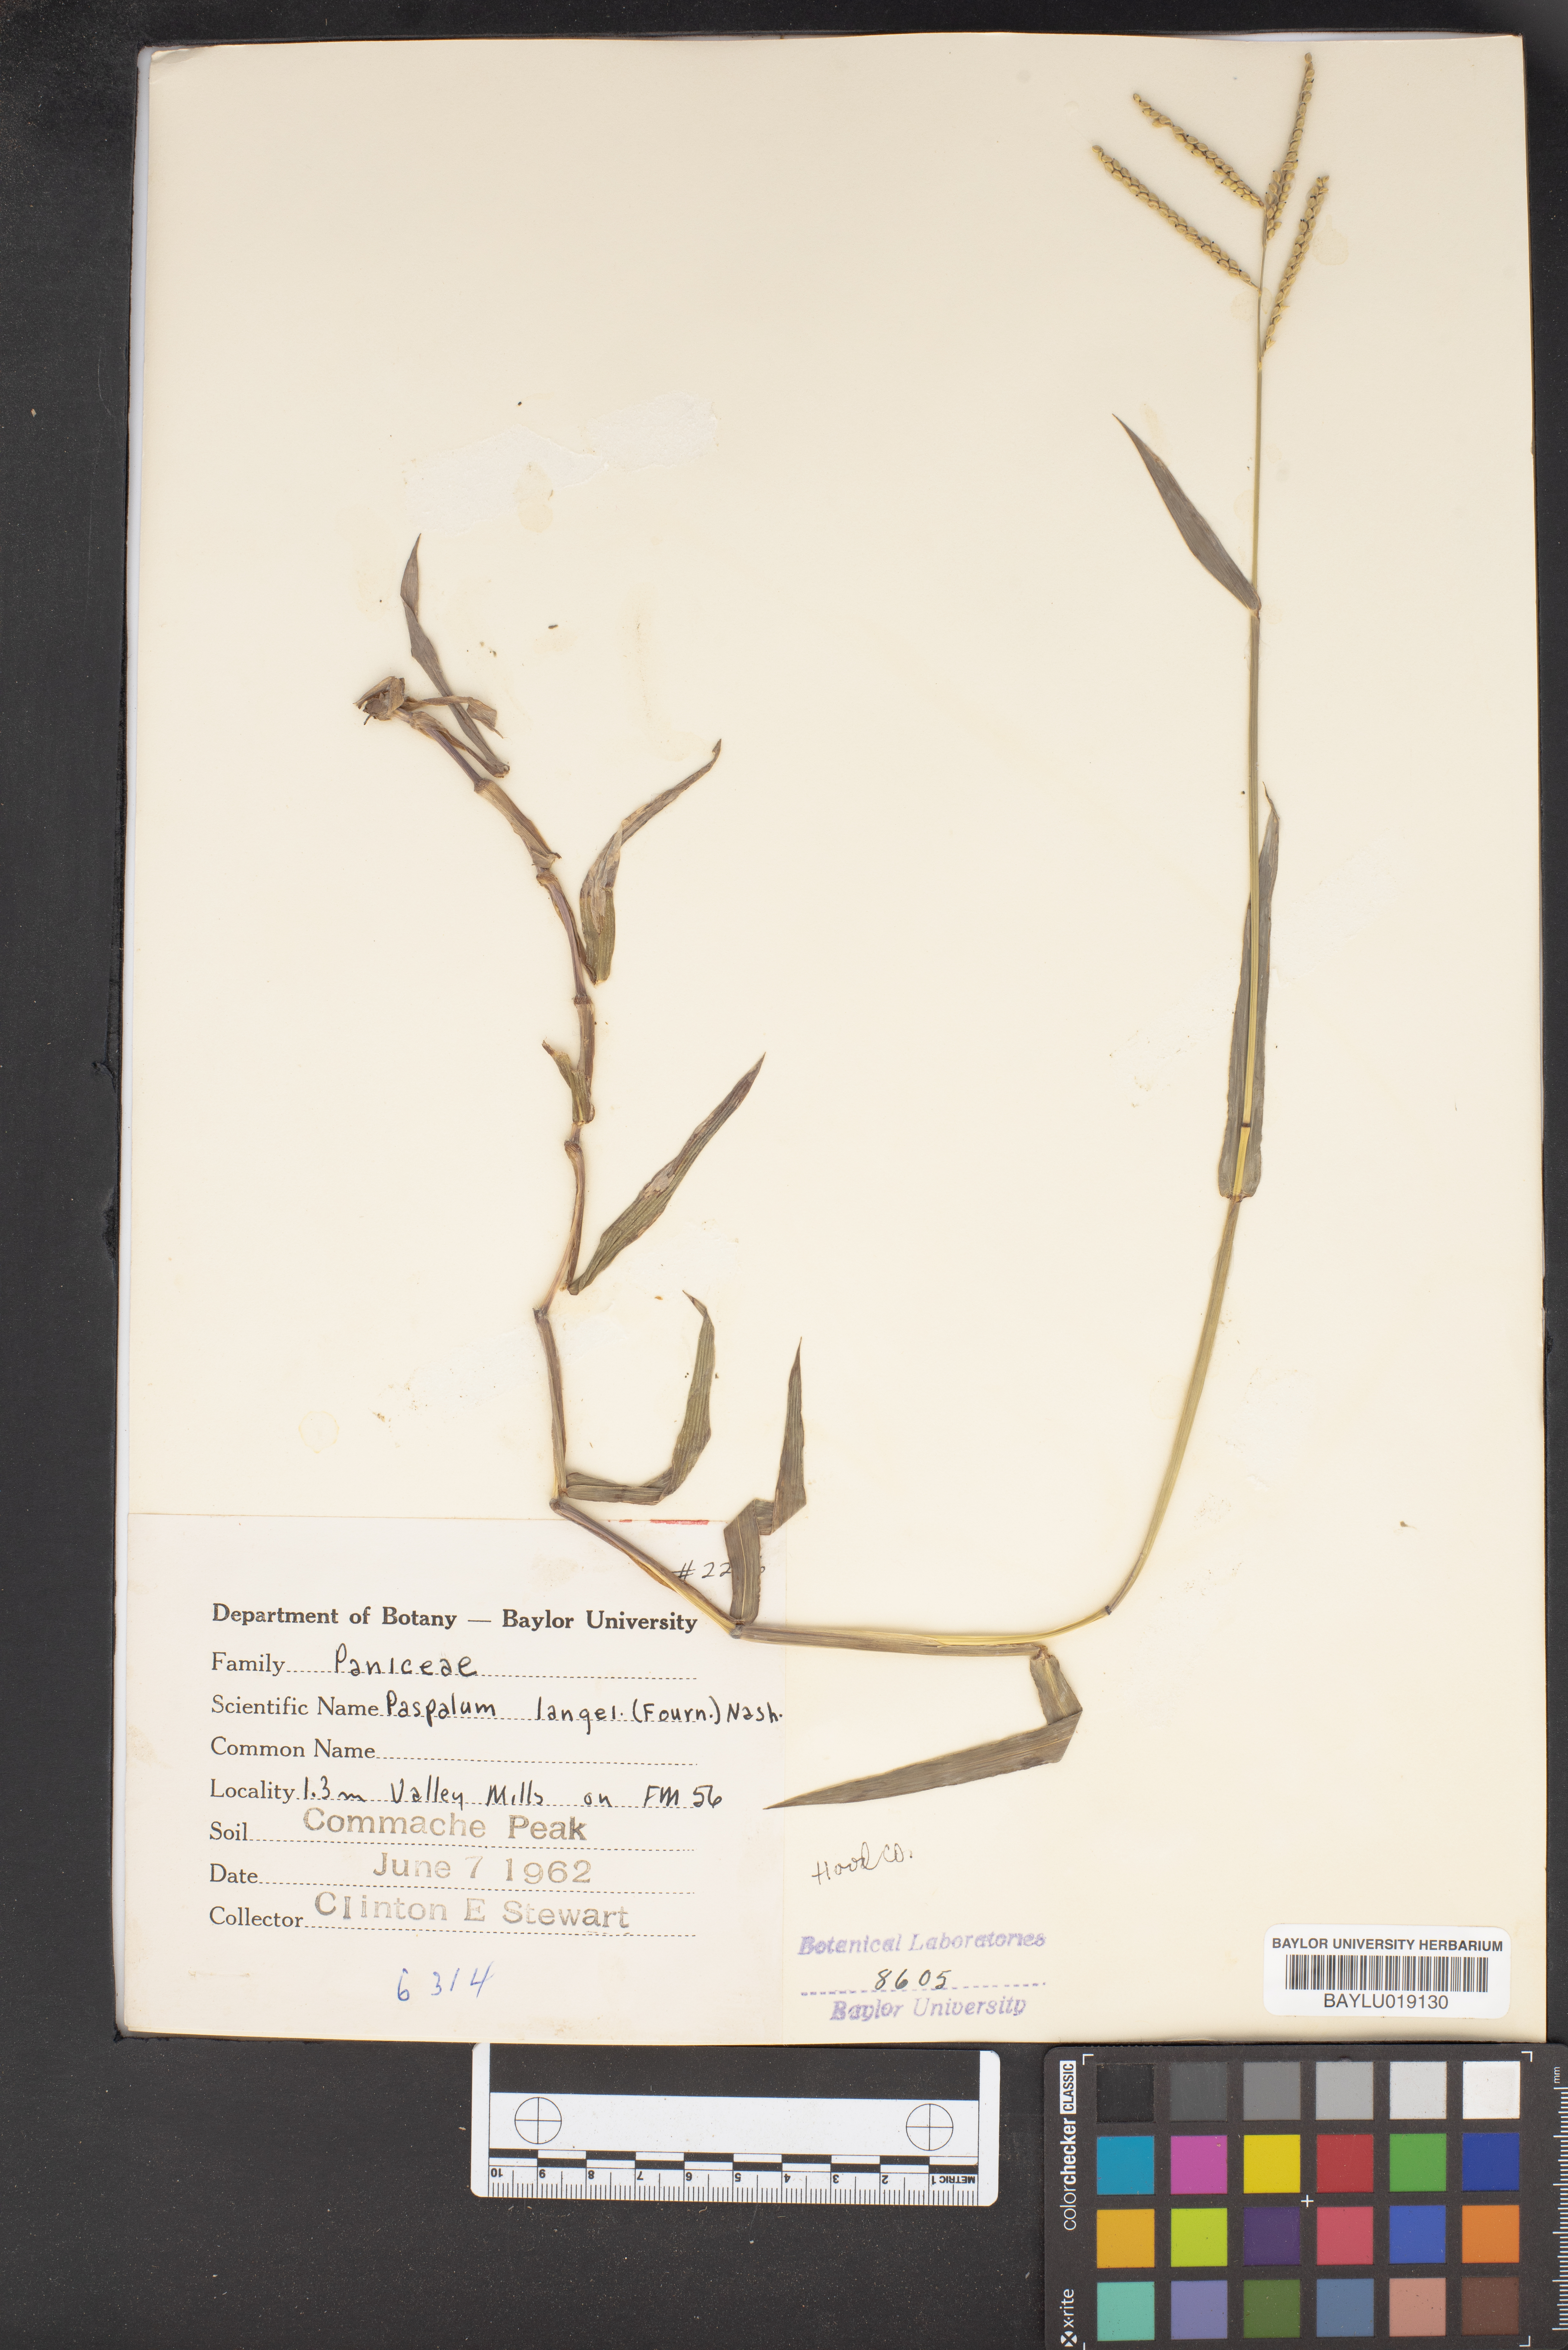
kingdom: Plantae
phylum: Tracheophyta
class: Liliopsida
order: Poales
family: Poaceae
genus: Paspalum
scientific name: Paspalum langei
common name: Rusty-seed paspalum
